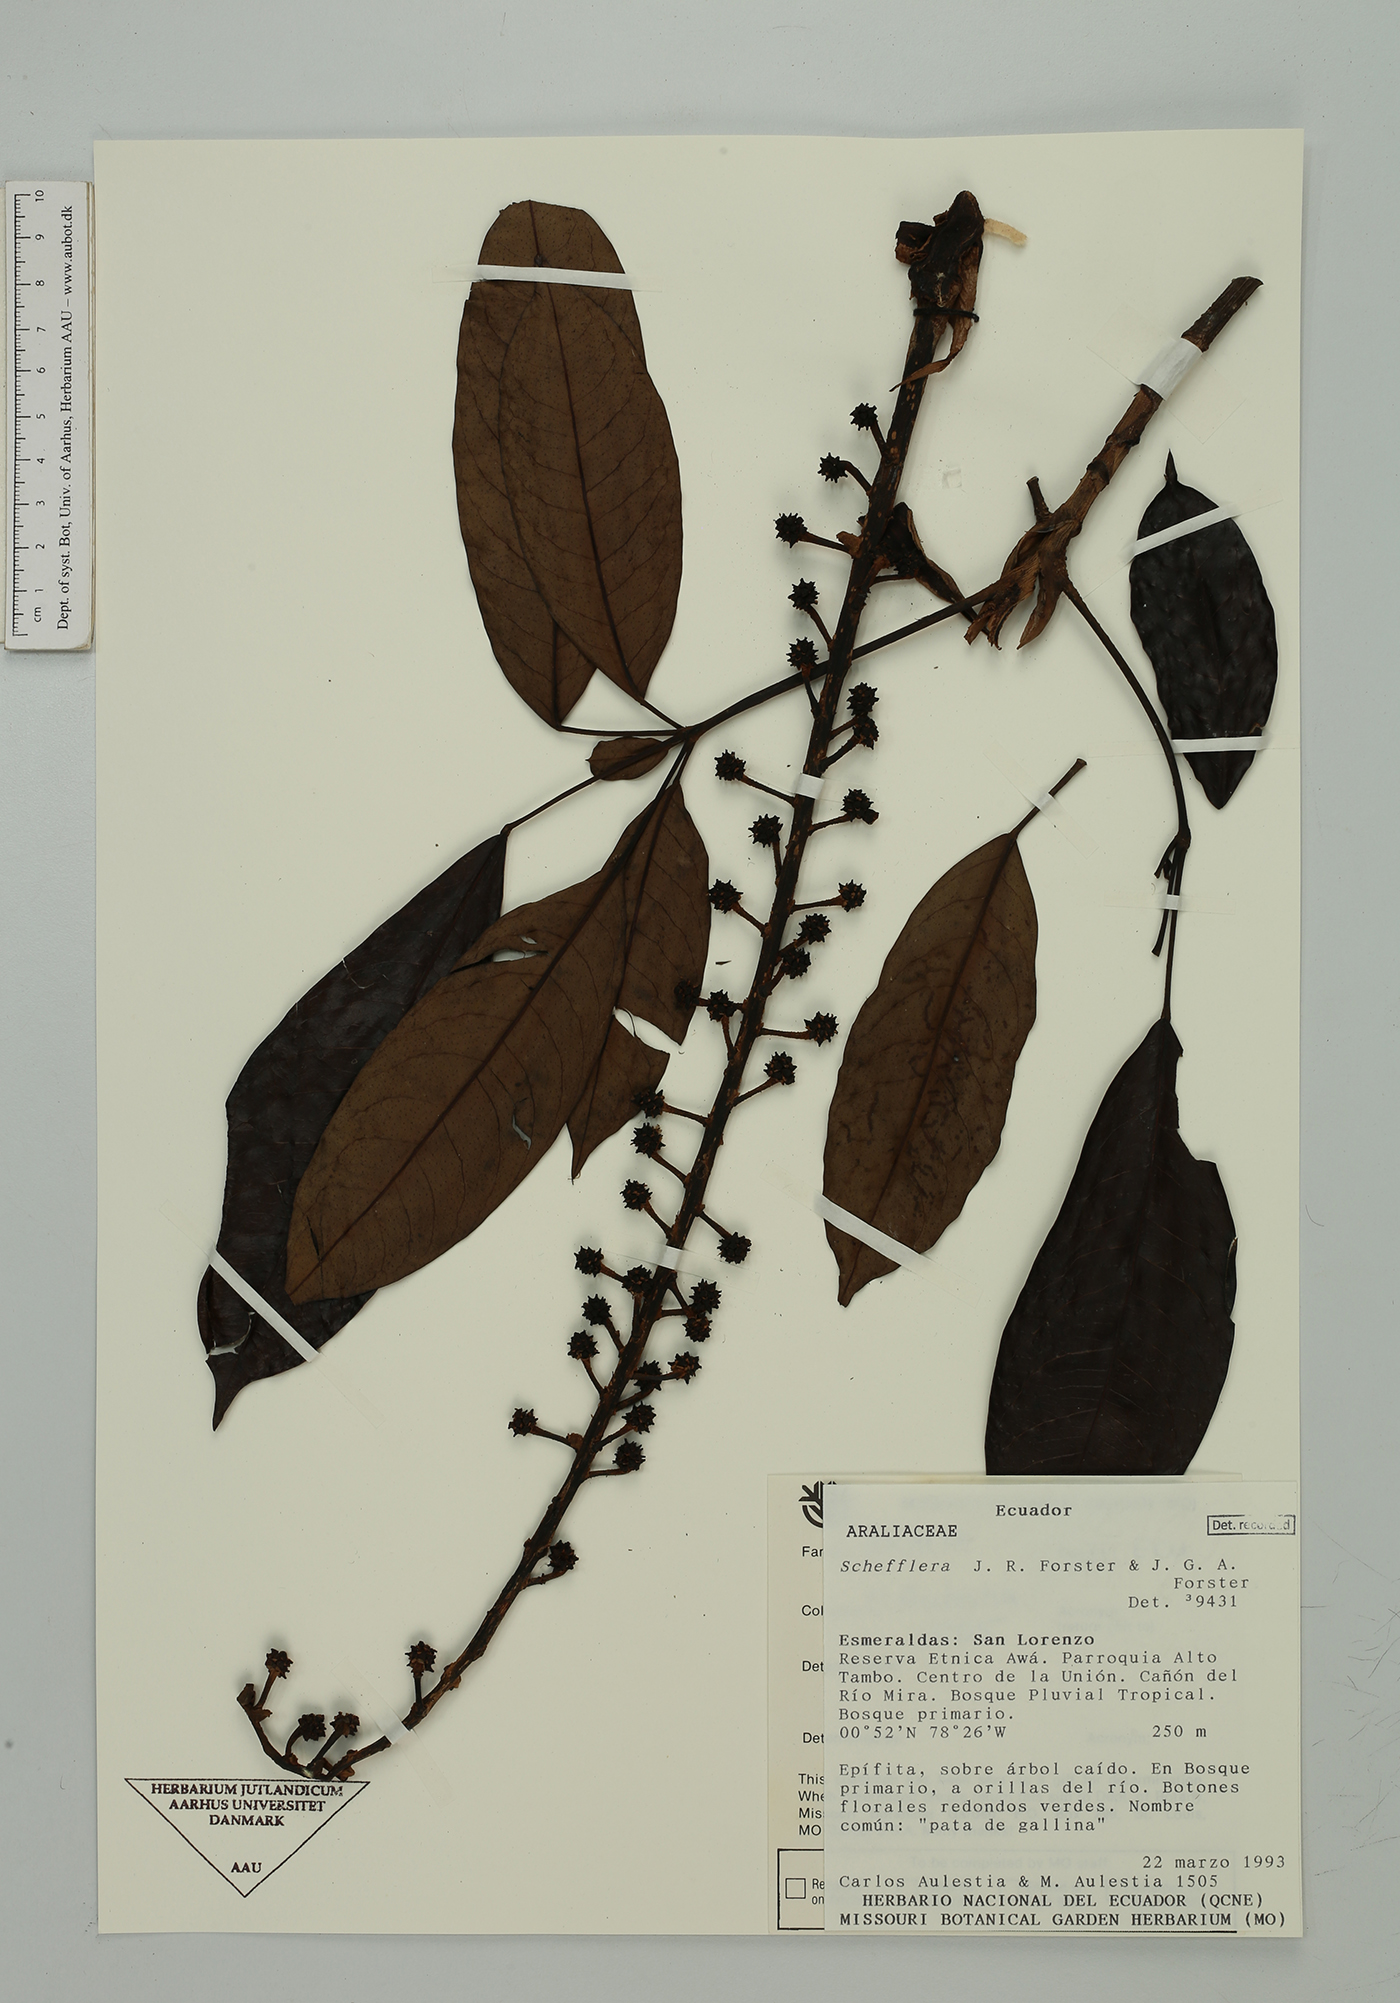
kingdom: Plantae
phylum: Tracheophyta
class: Magnoliopsida
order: Apiales
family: Araliaceae
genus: Sciodaphyllum
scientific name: Sciodaphyllum
